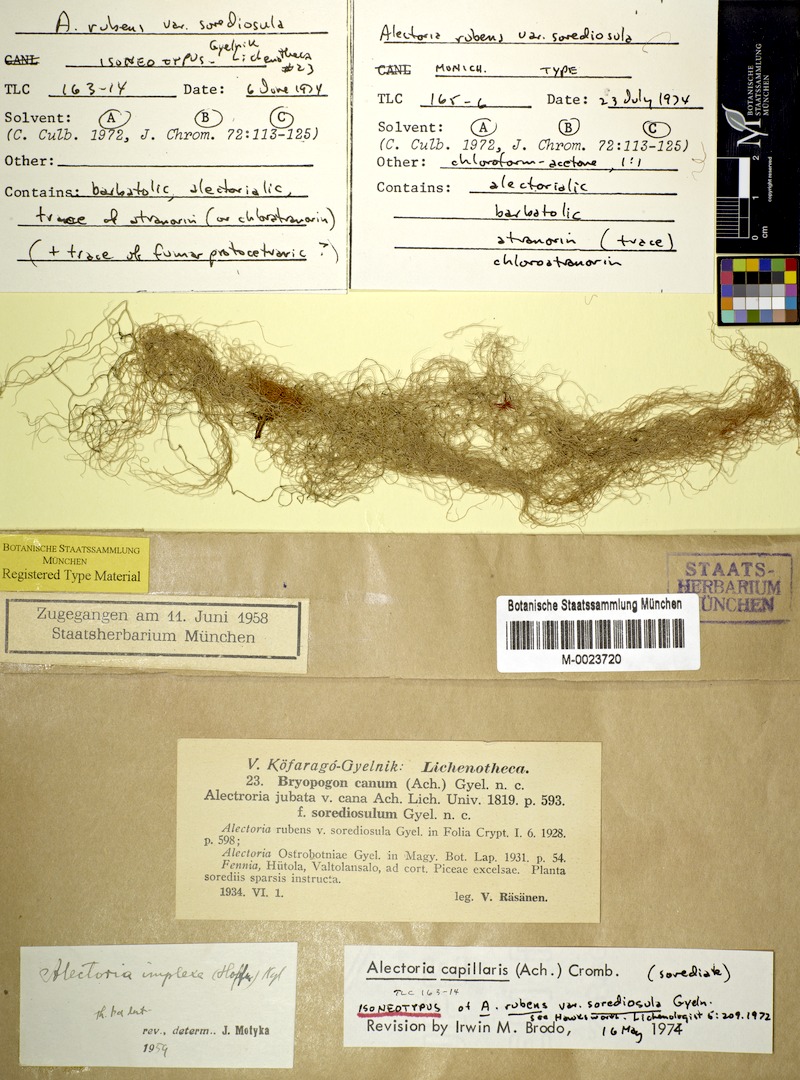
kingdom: Fungi
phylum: Ascomycota
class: Lecanoromycetes
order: Lecanorales
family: Parmeliaceae
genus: Bryoria
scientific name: Bryoria capillaris
